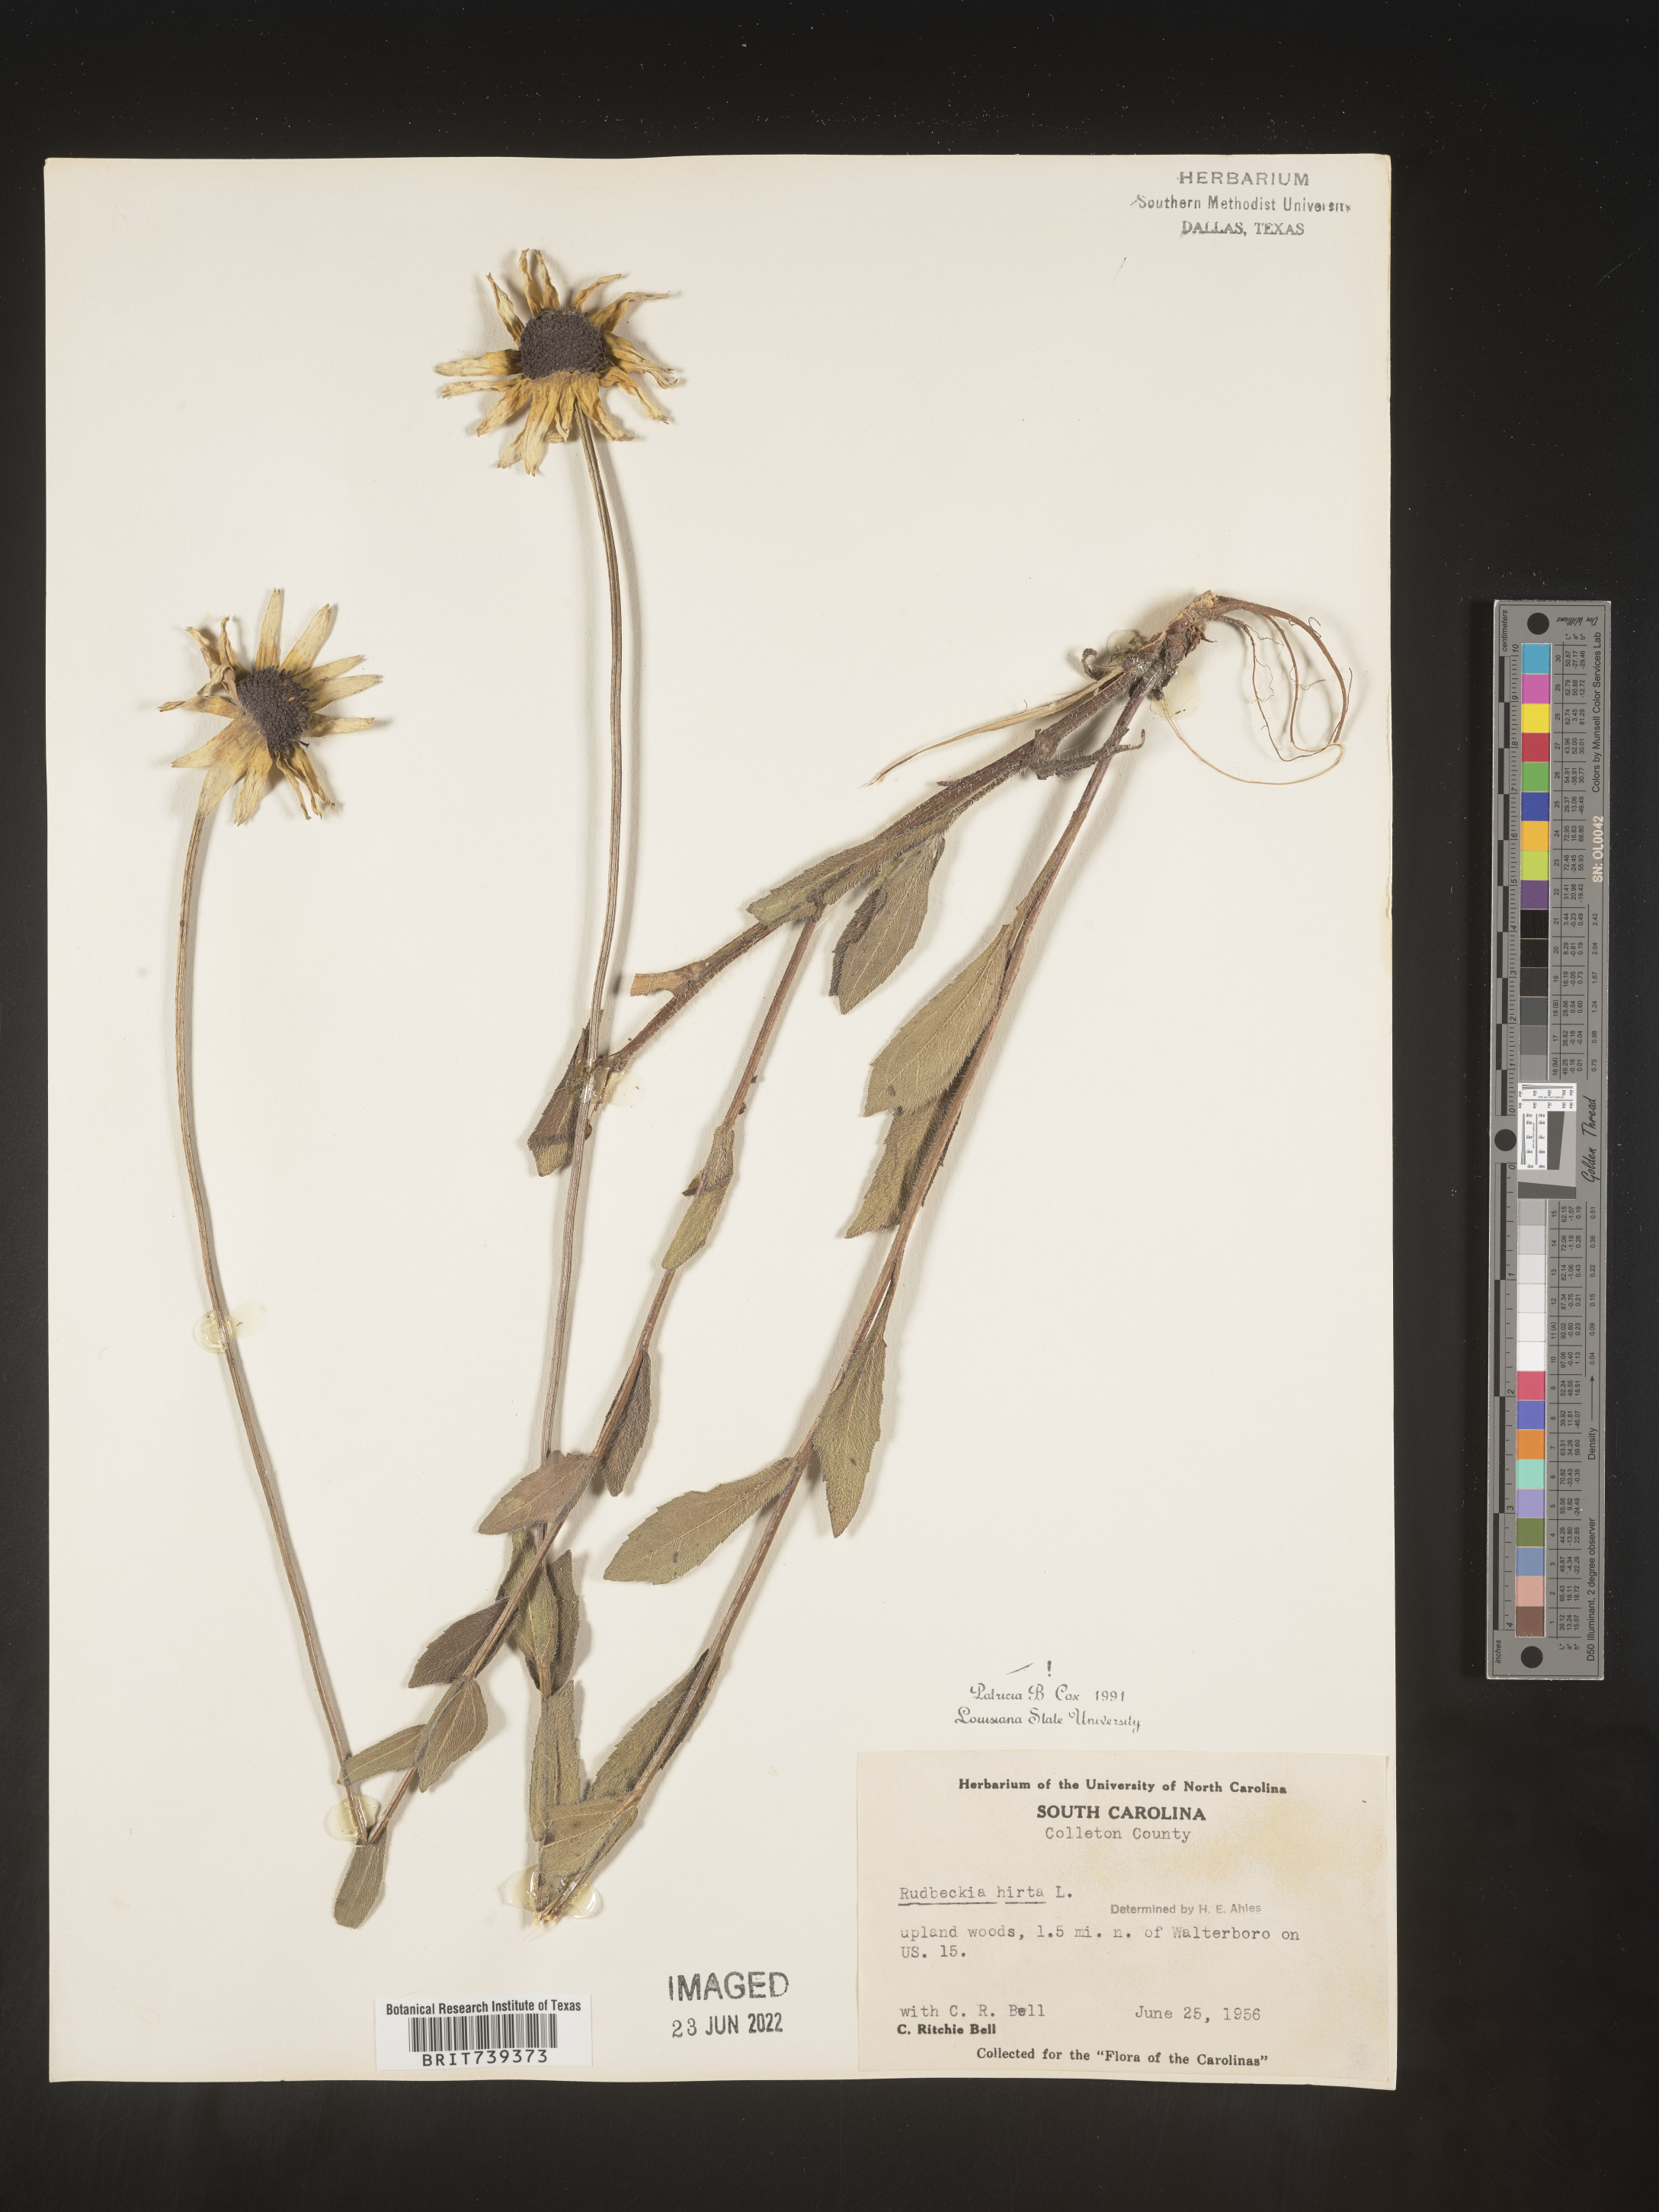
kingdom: Plantae
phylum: Tracheophyta
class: Magnoliopsida
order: Asterales
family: Asteraceae
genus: Rudbeckia
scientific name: Rudbeckia hirta
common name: Black-eyed-susan
